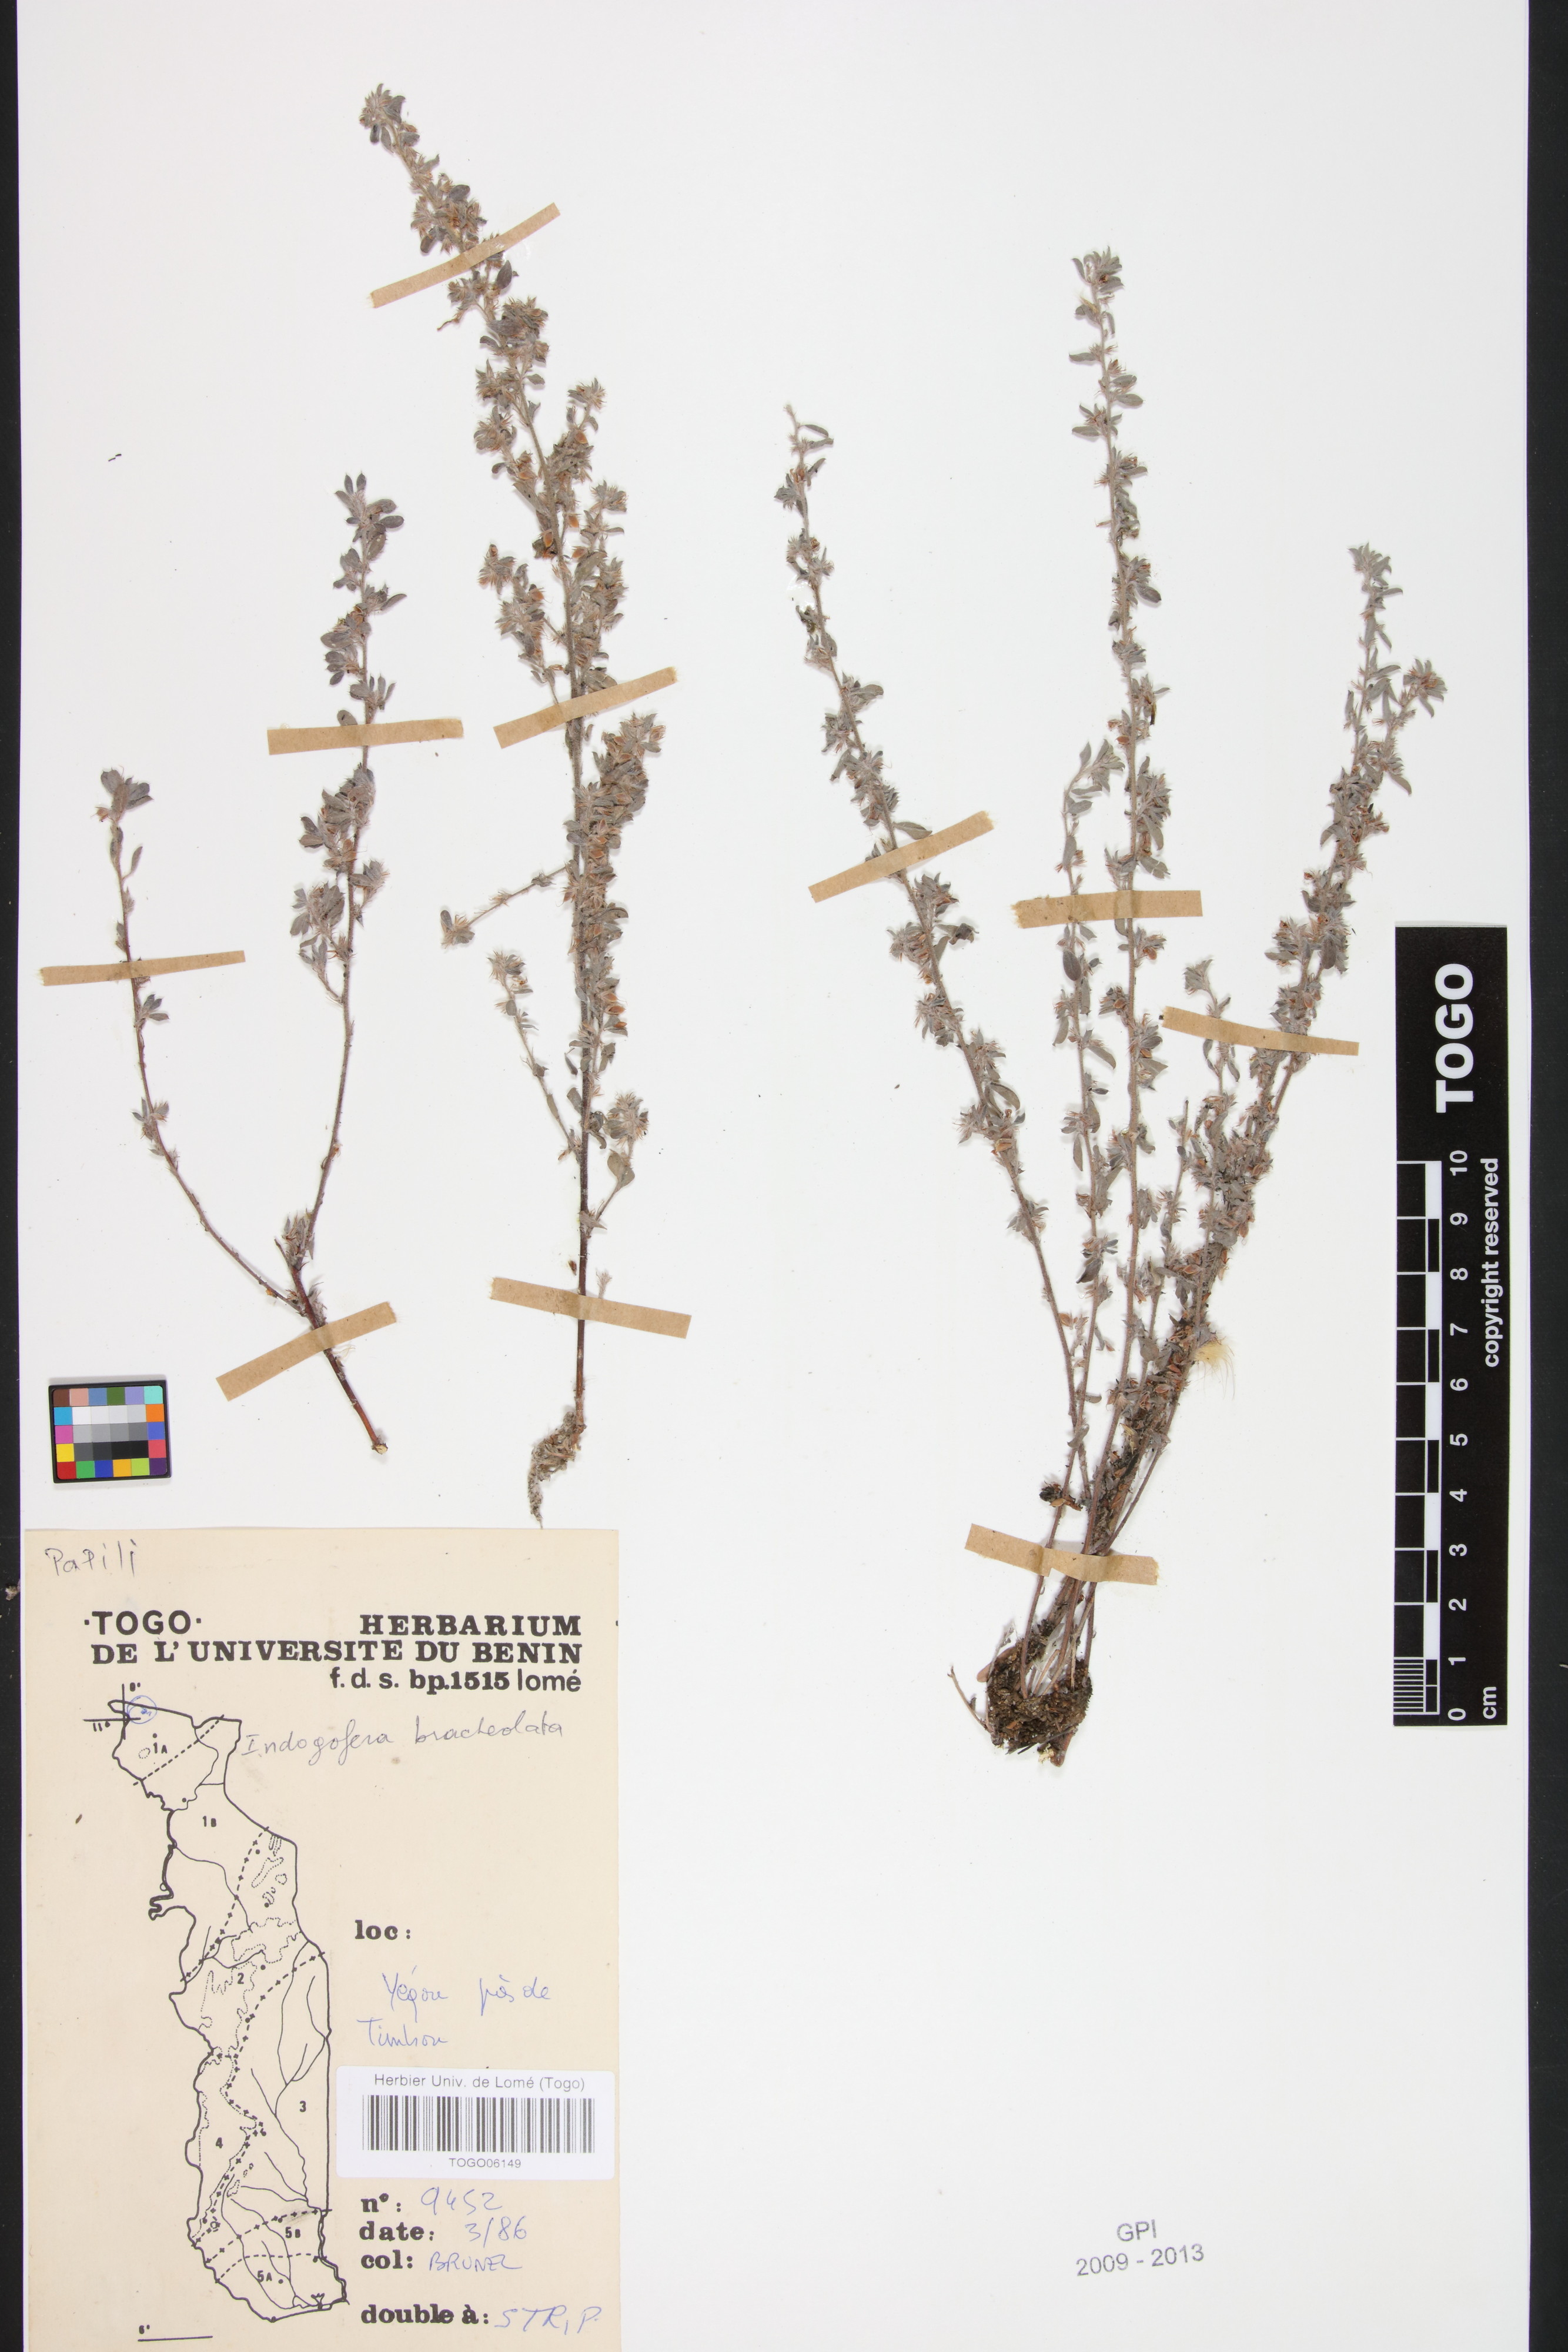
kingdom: Plantae
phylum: Tracheophyta
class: Magnoliopsida
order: Fabales
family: Fabaceae
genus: Indigofera
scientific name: Indigofera bracteolata
